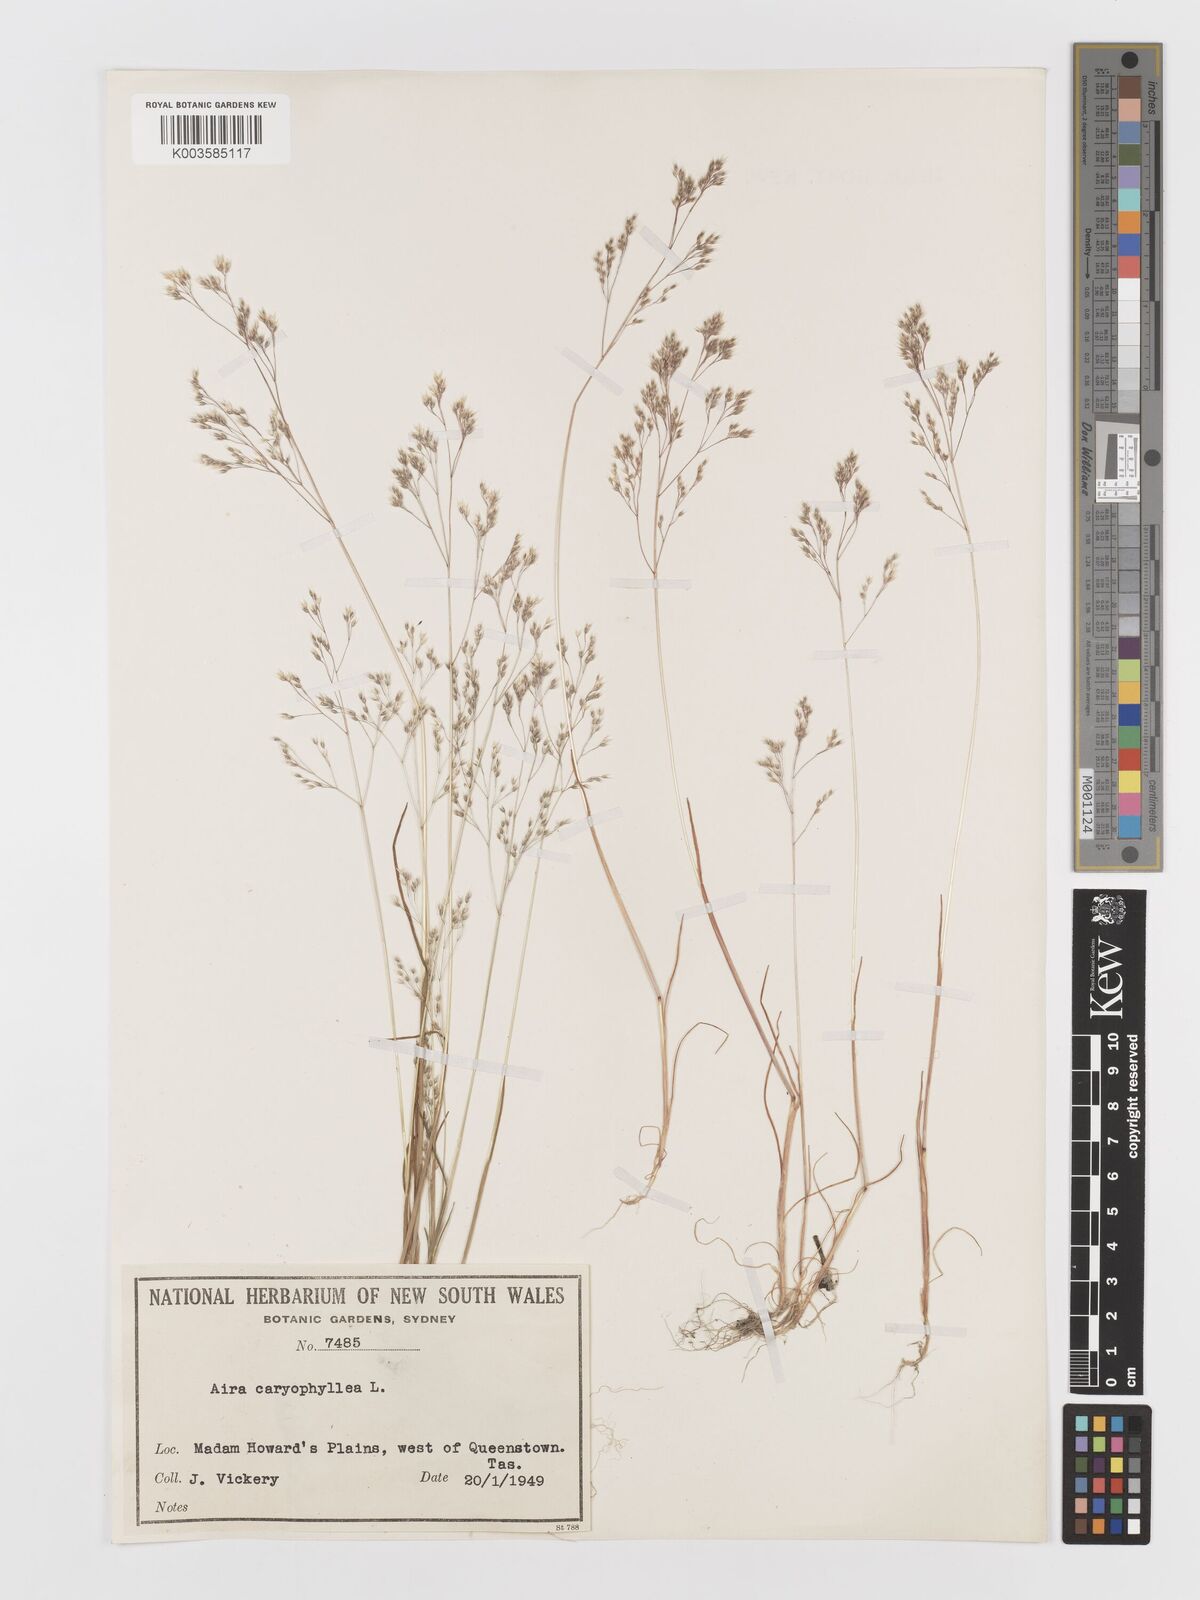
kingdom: Plantae
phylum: Tracheophyta
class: Liliopsida
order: Poales
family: Poaceae
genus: Aira
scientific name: Aira caryophyllea
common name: Silver hairgrass
